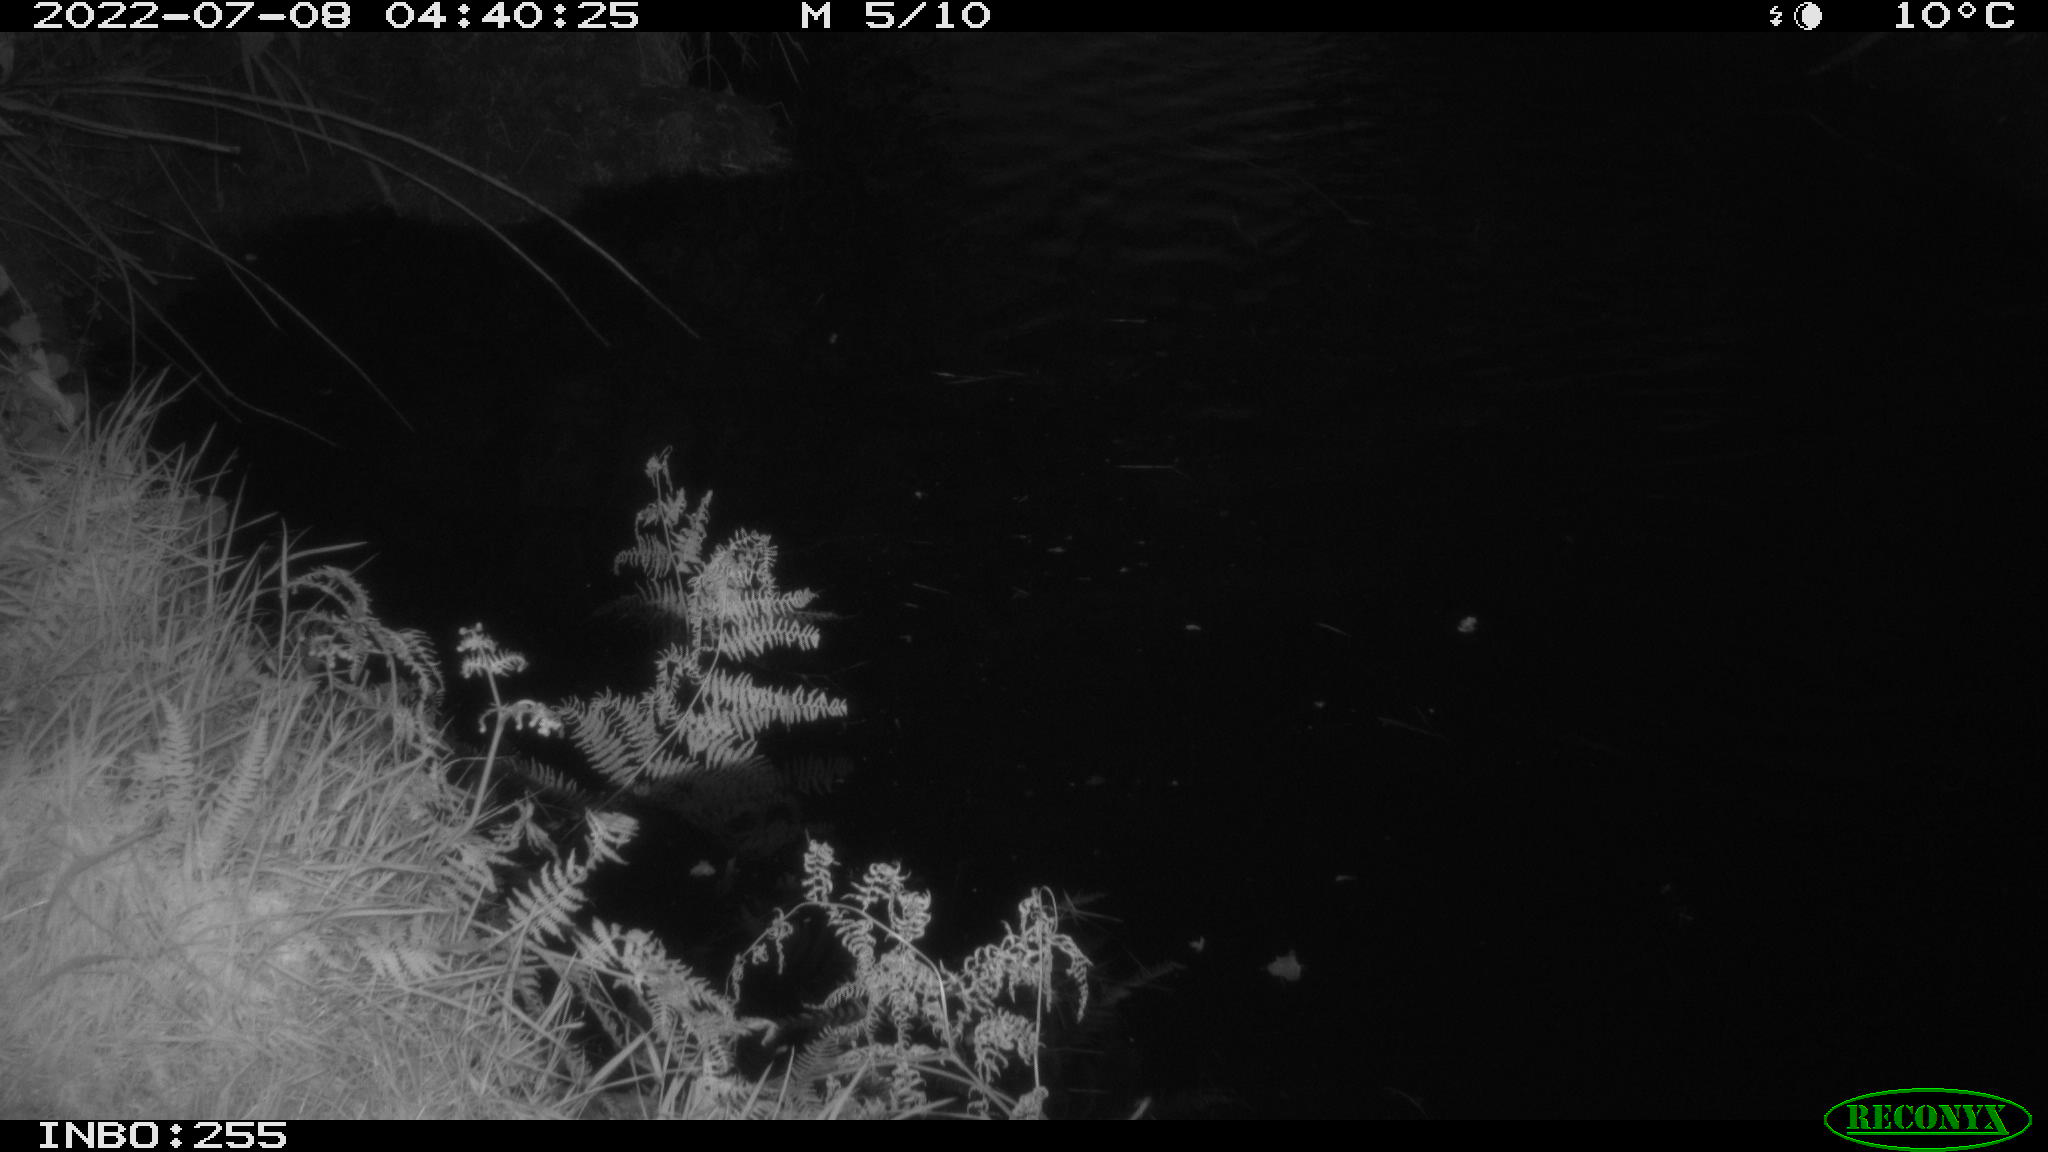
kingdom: Animalia
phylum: Chordata
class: Aves
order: Anseriformes
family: Anatidae
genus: Anas
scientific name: Anas platyrhynchos
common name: Mallard
